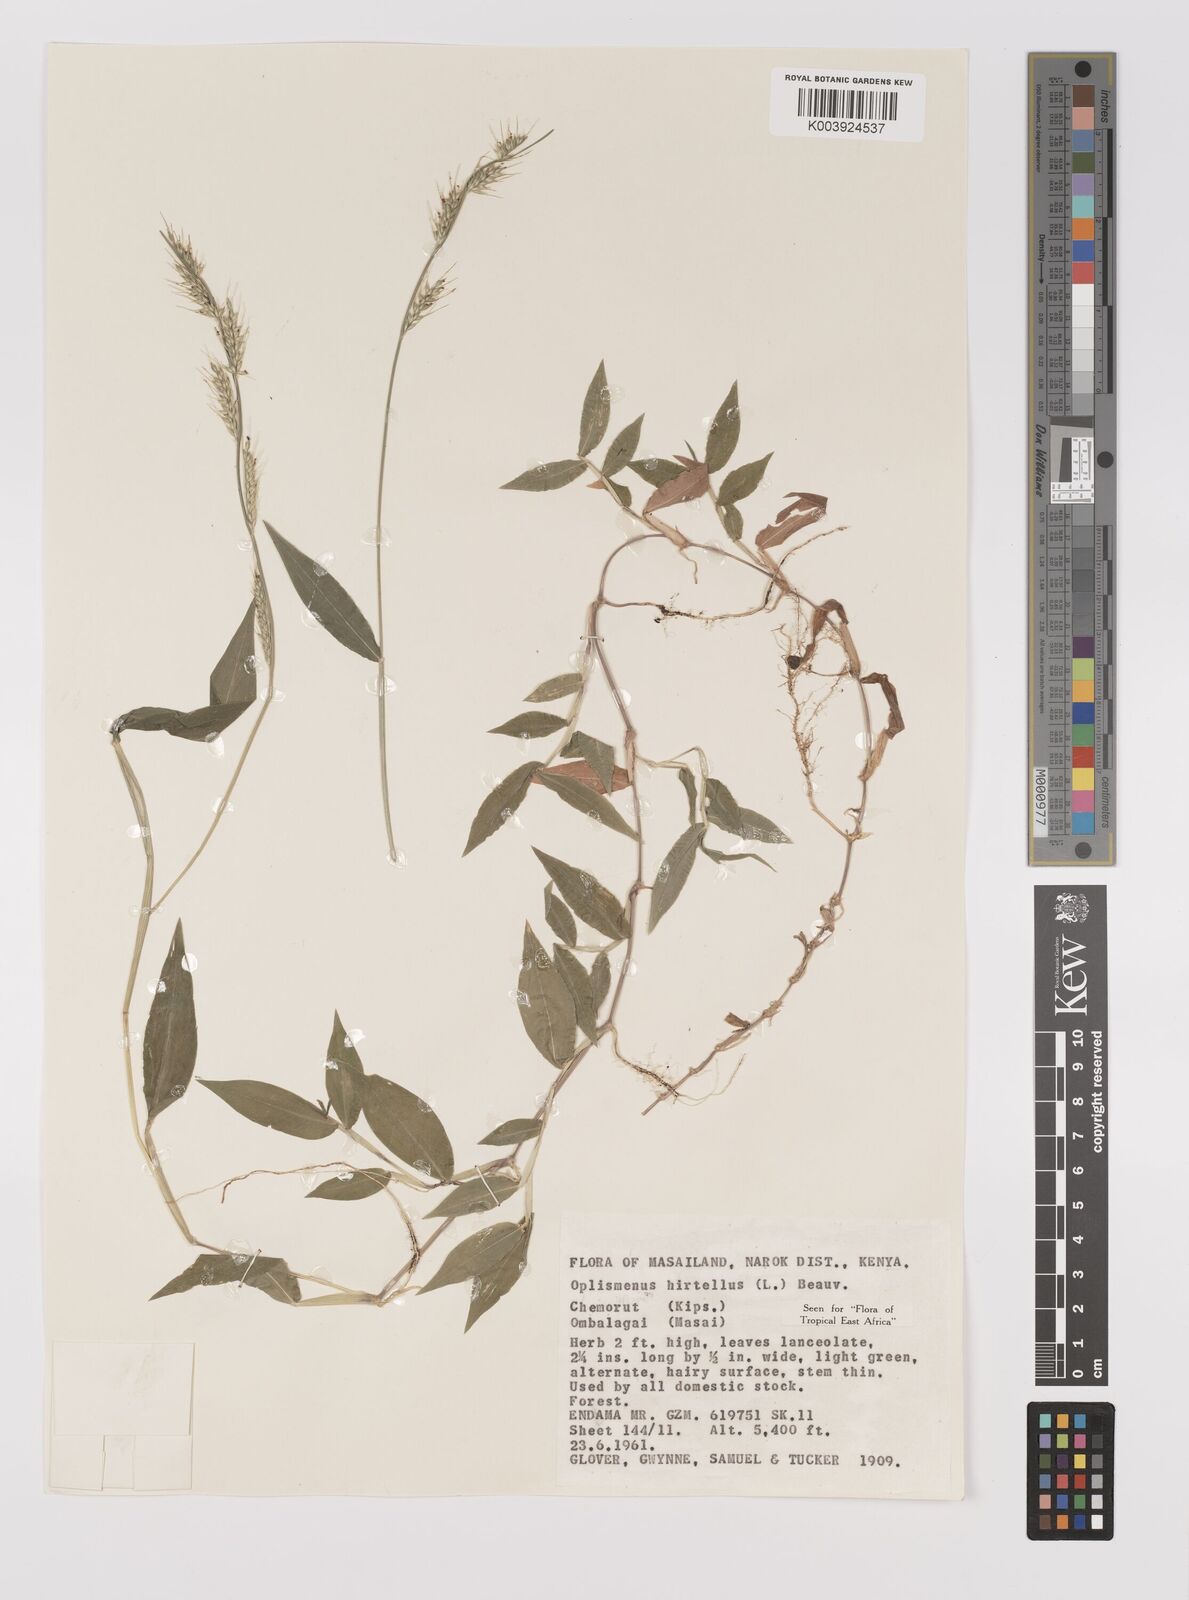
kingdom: Plantae
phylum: Tracheophyta
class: Liliopsida
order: Poales
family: Poaceae
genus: Oplismenus
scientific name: Oplismenus hirtellus
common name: Basketgrass
